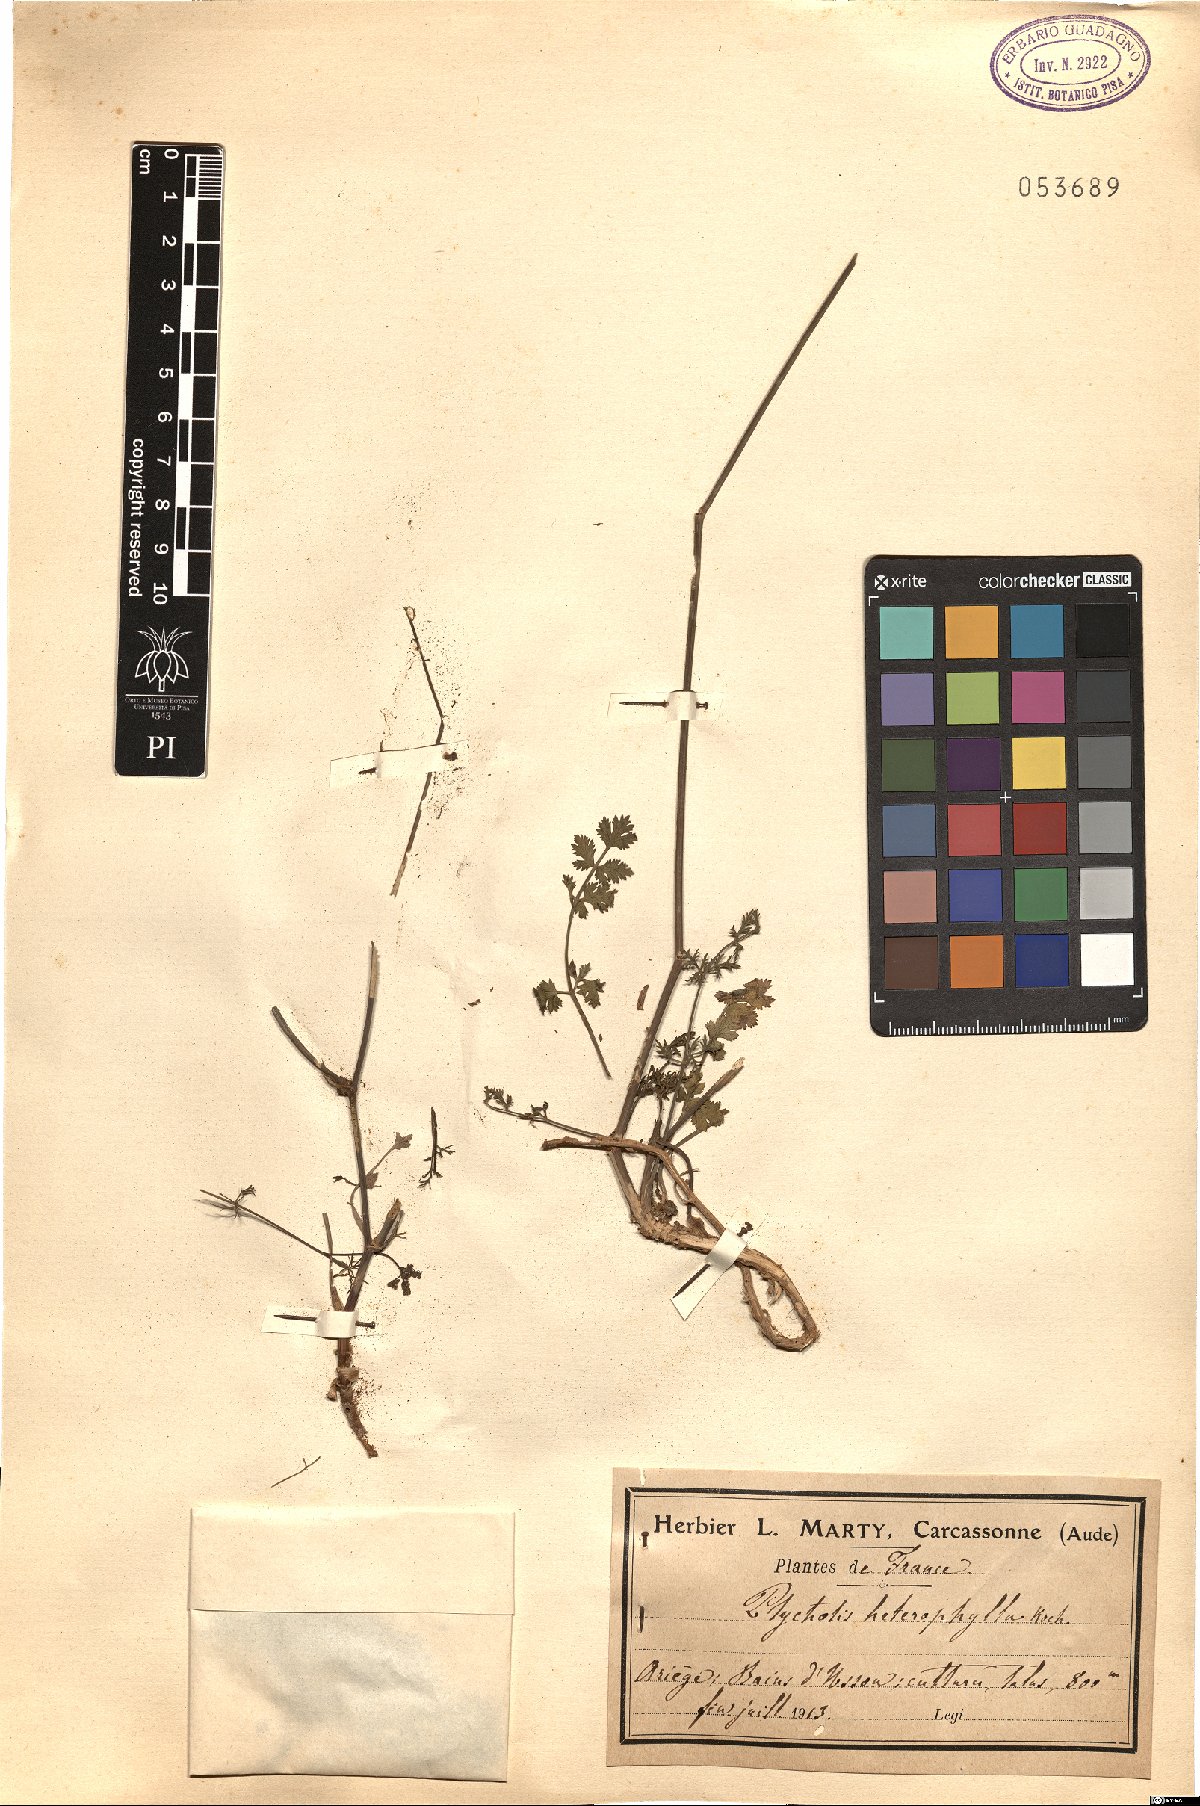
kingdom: Plantae
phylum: Tracheophyta
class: Magnoliopsida
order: Apiales
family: Apiaceae
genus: Ptychotis
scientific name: Ptychotis saxifraga
